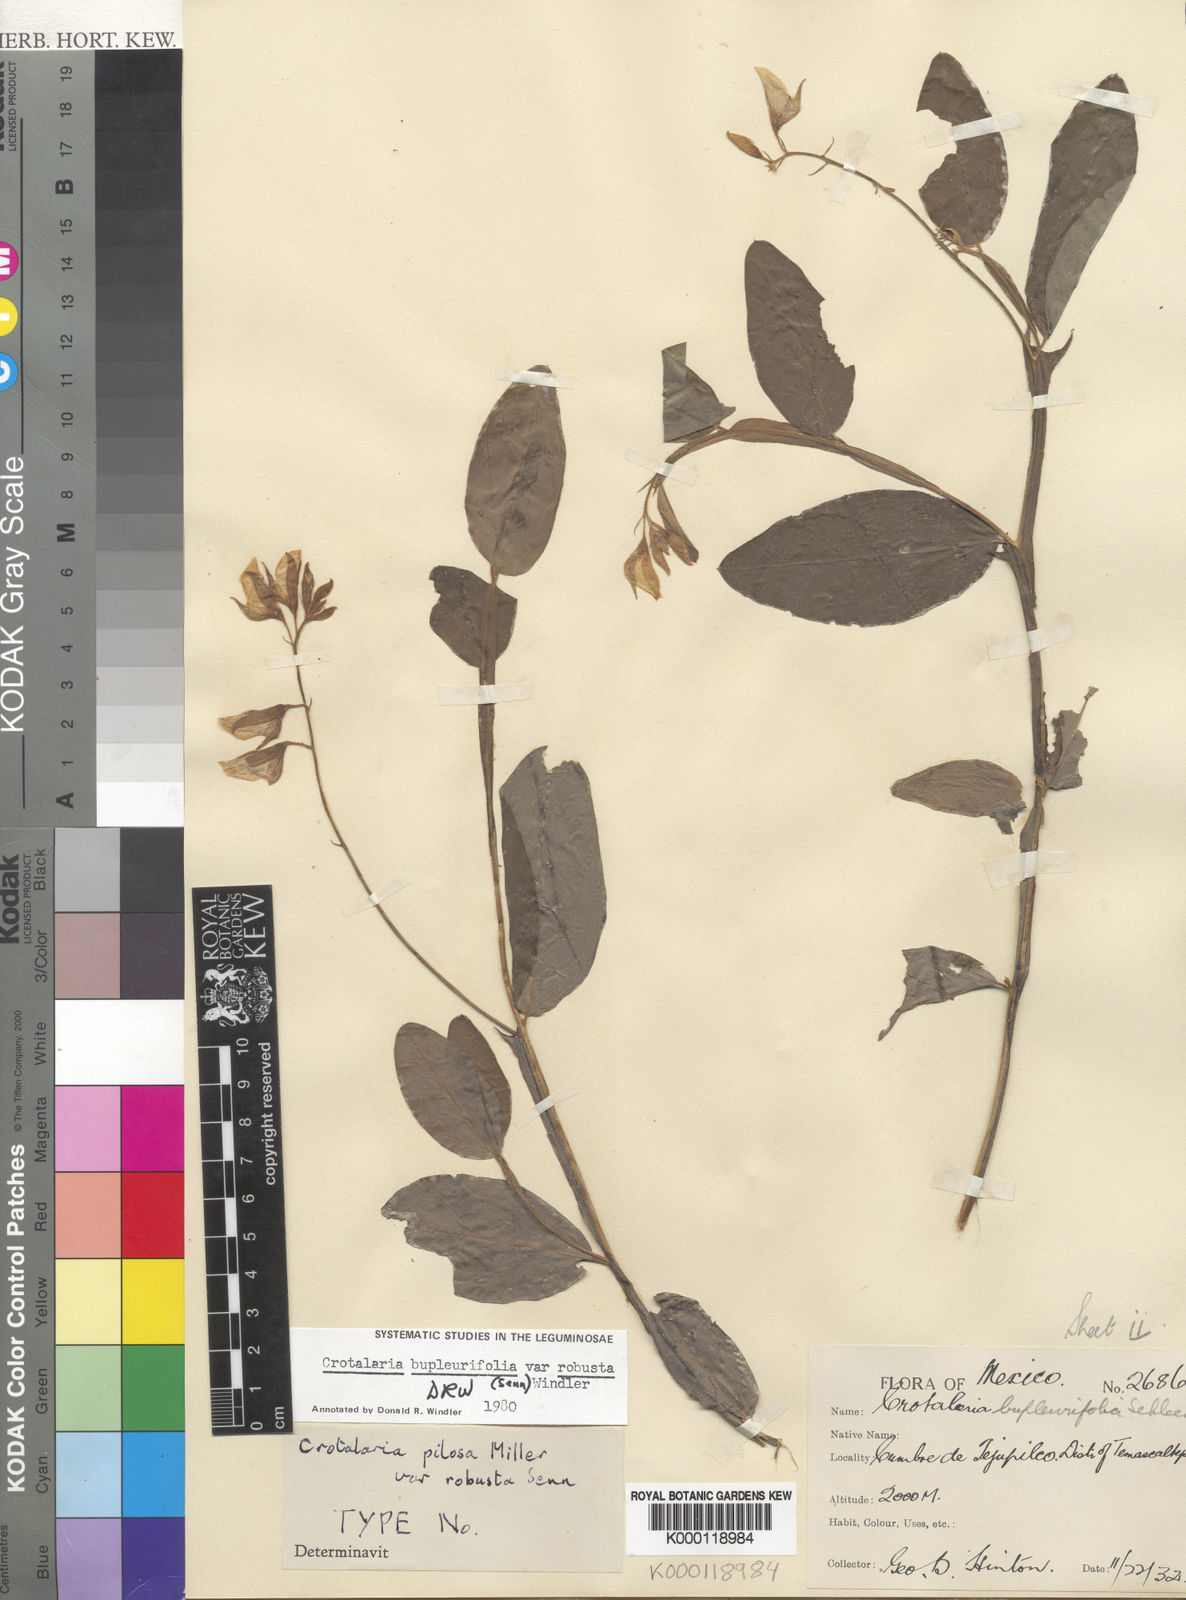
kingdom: Plantae
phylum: Tracheophyta
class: Magnoliopsida
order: Fabales
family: Fabaceae
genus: Crotalaria
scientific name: Crotalaria bupleurifolia
